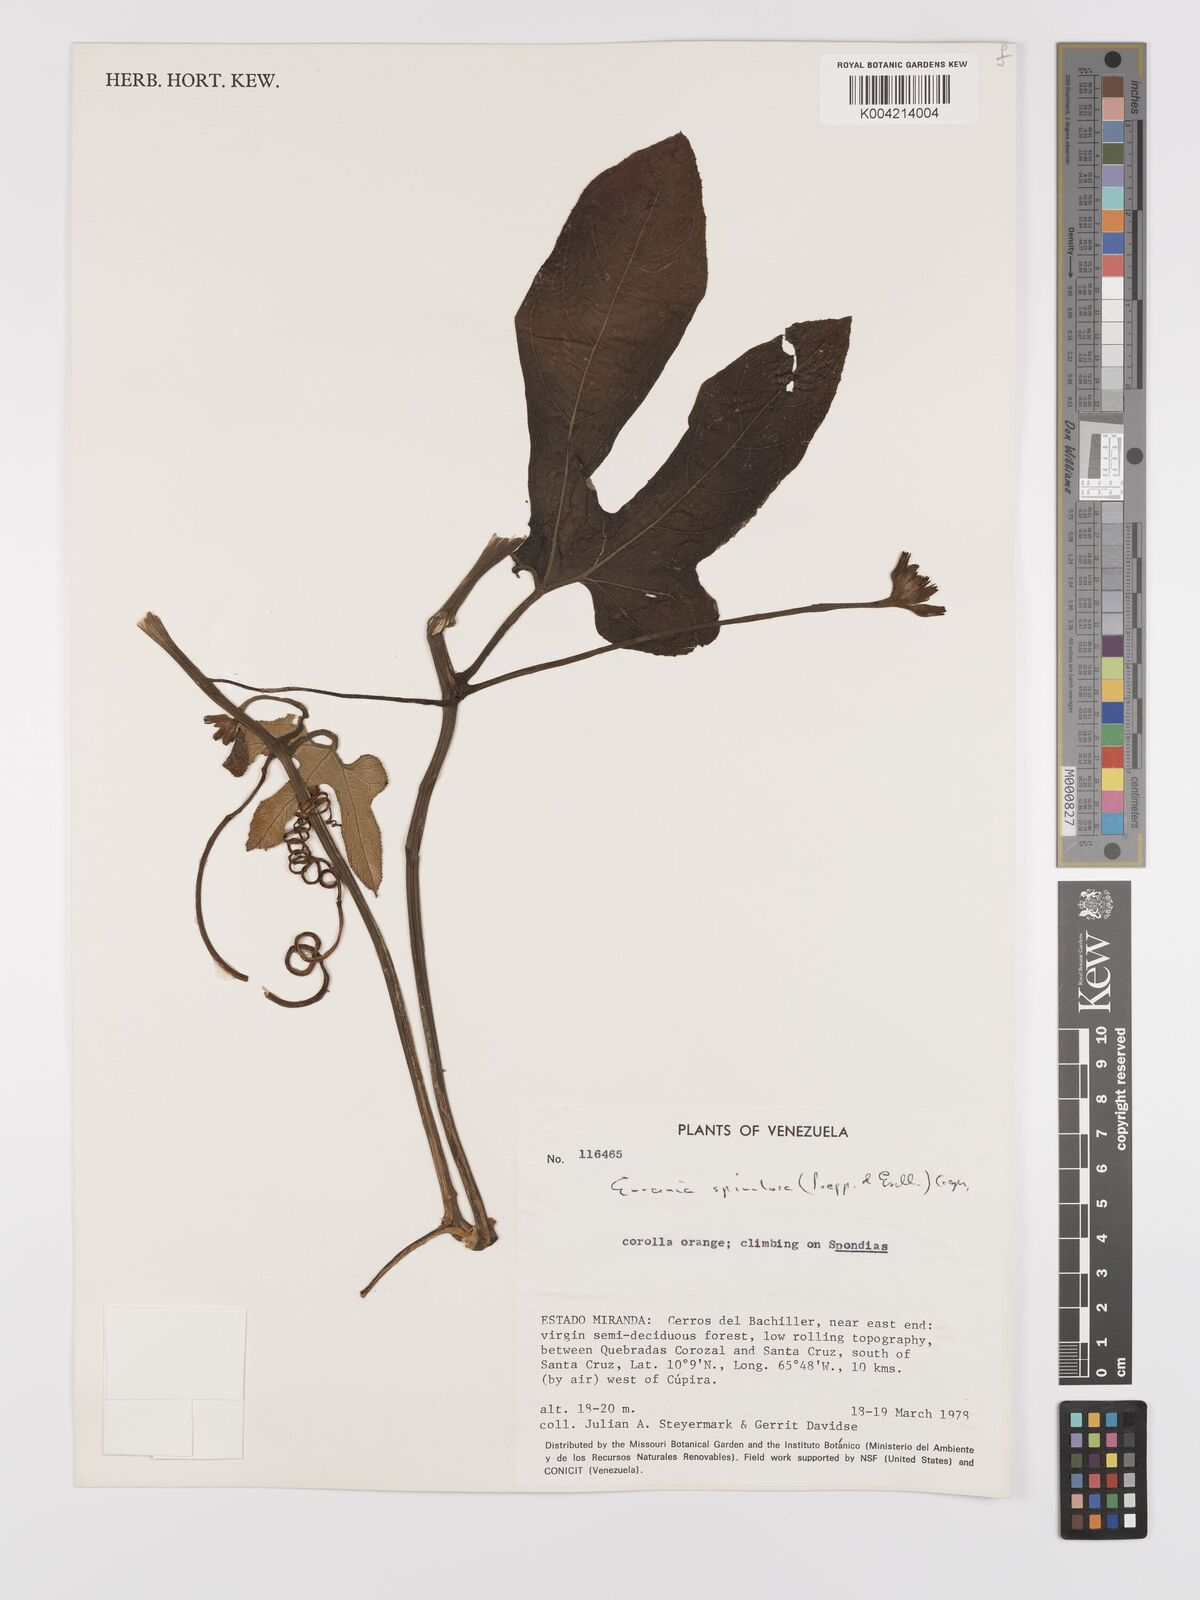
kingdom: Plantae
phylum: Tracheophyta
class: Magnoliopsida
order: Cucurbitales
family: Cucurbitaceae
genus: Gurania
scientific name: Gurania lobata
